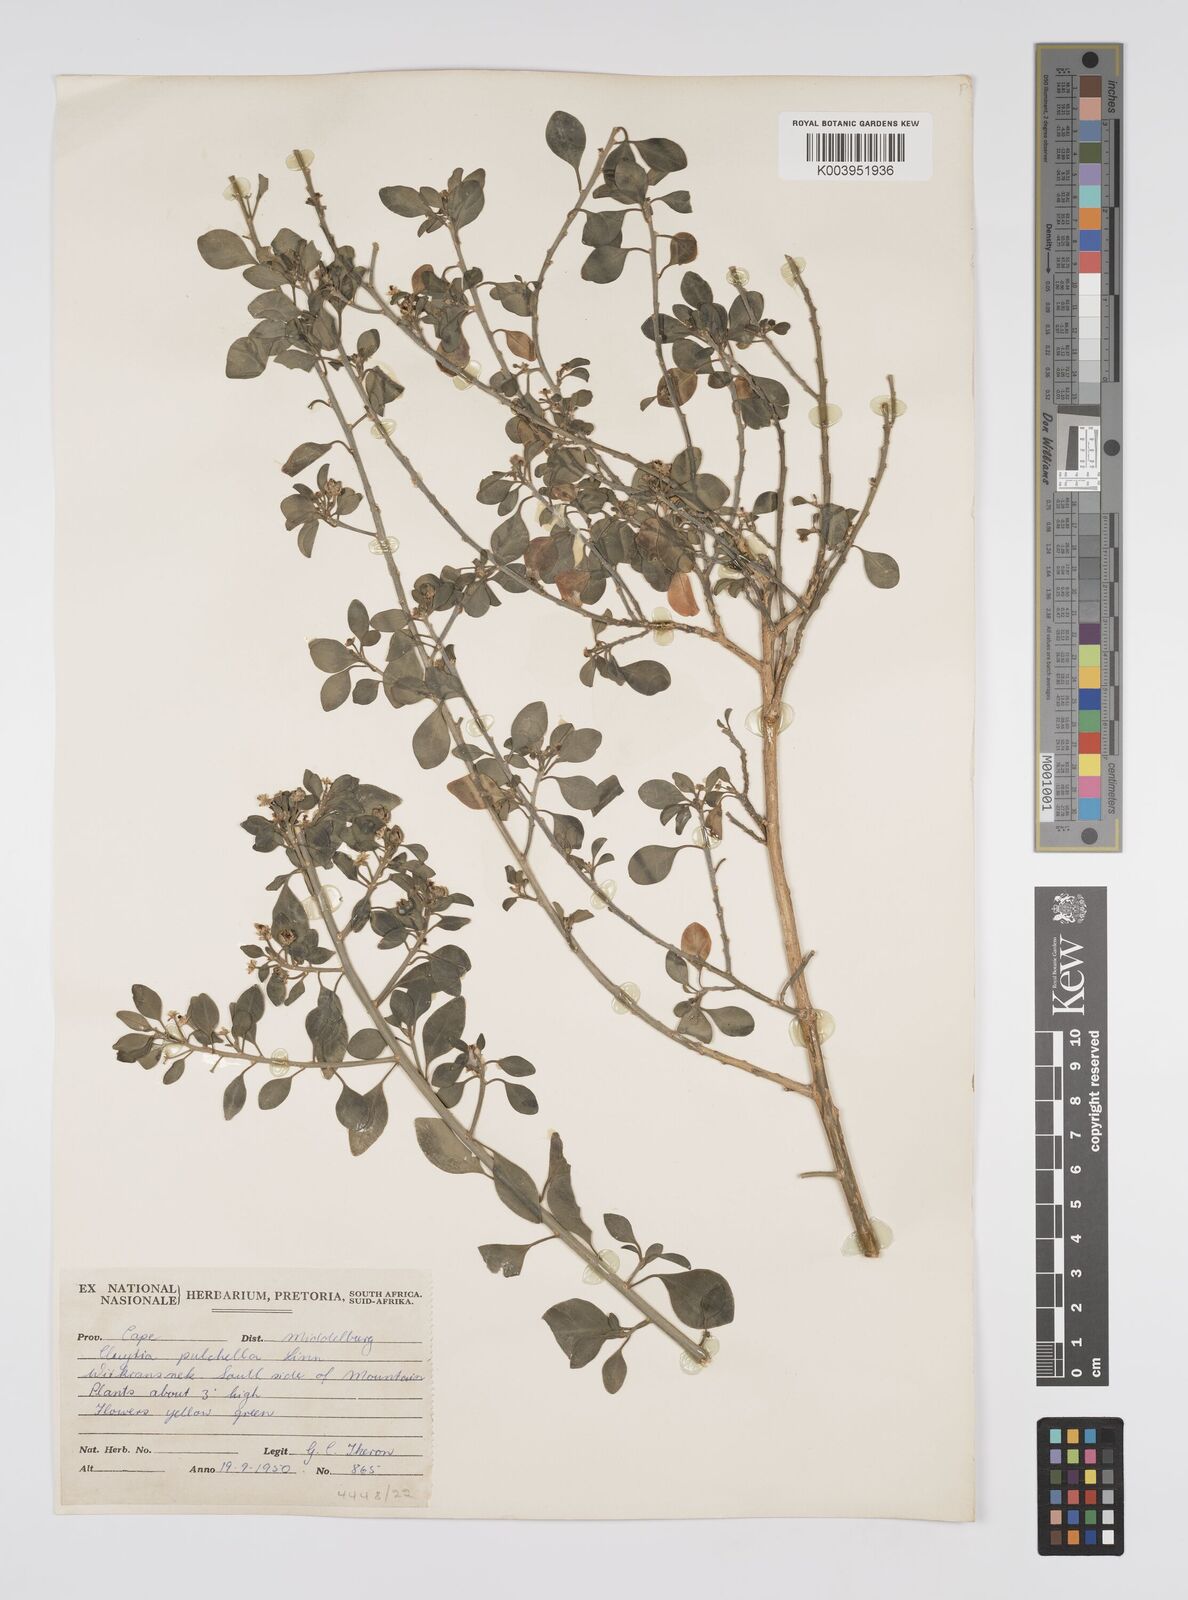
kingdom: Plantae
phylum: Tracheophyta
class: Magnoliopsida
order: Malpighiales
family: Peraceae
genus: Clutia
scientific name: Clutia pulchella
